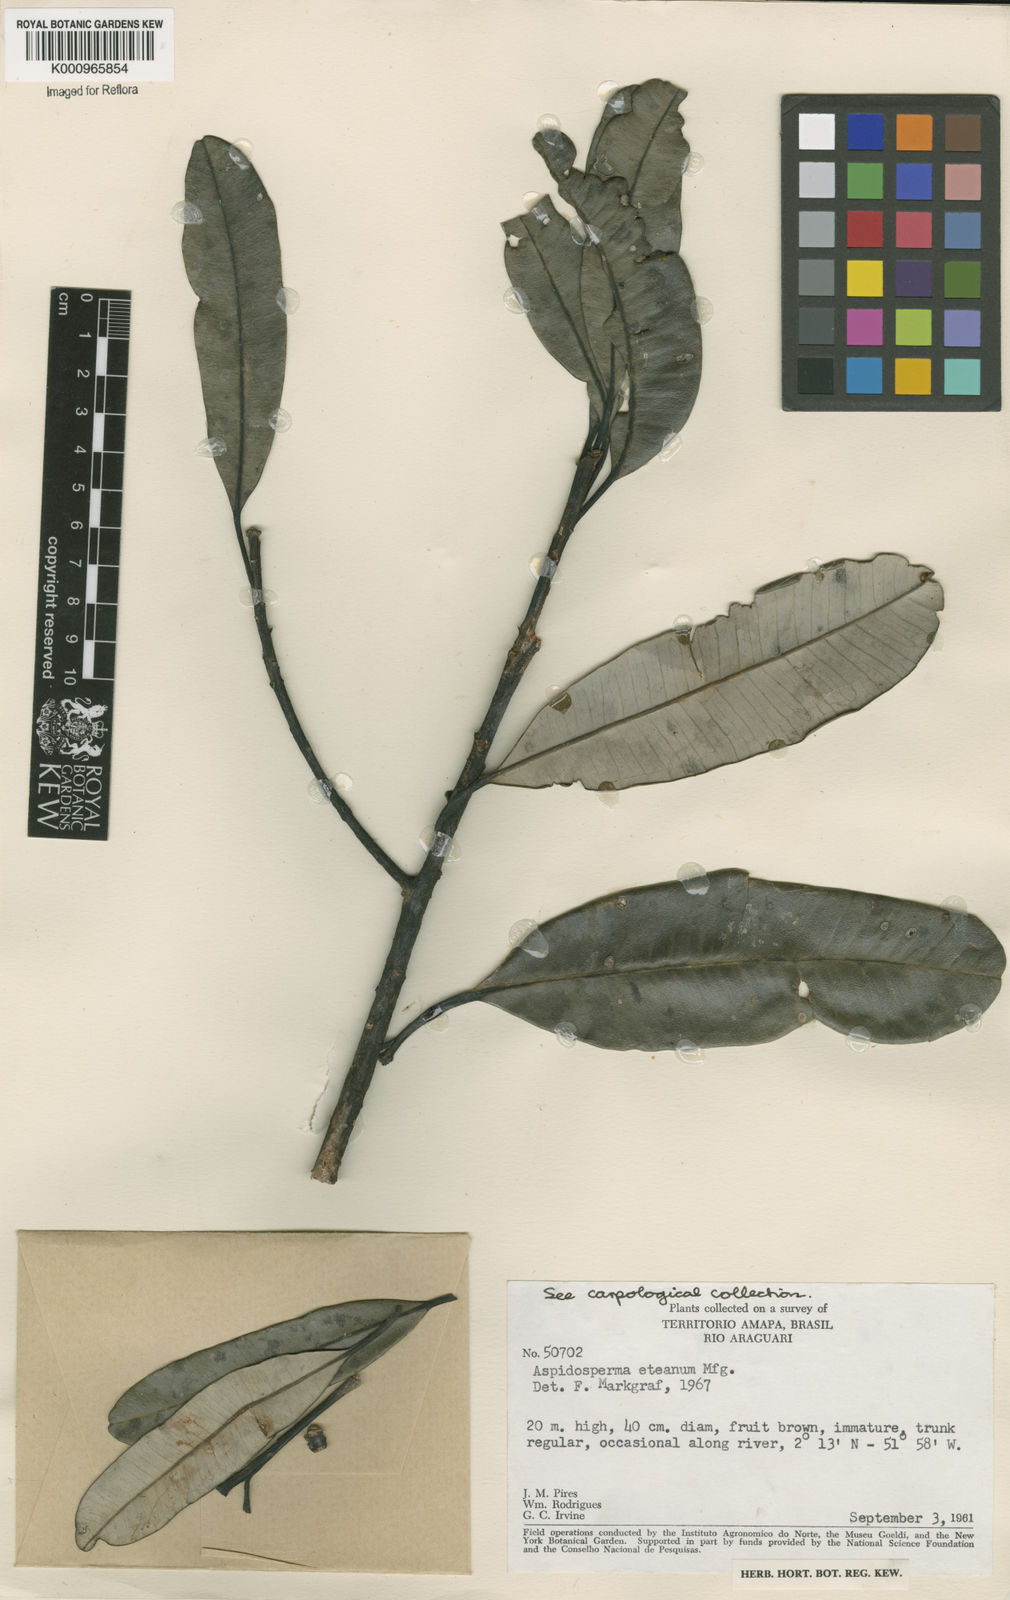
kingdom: Plantae
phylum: Tracheophyta
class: Magnoliopsida
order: Gentianales
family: Apocynaceae
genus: Aspidosperma
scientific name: Aspidosperma eteanum
